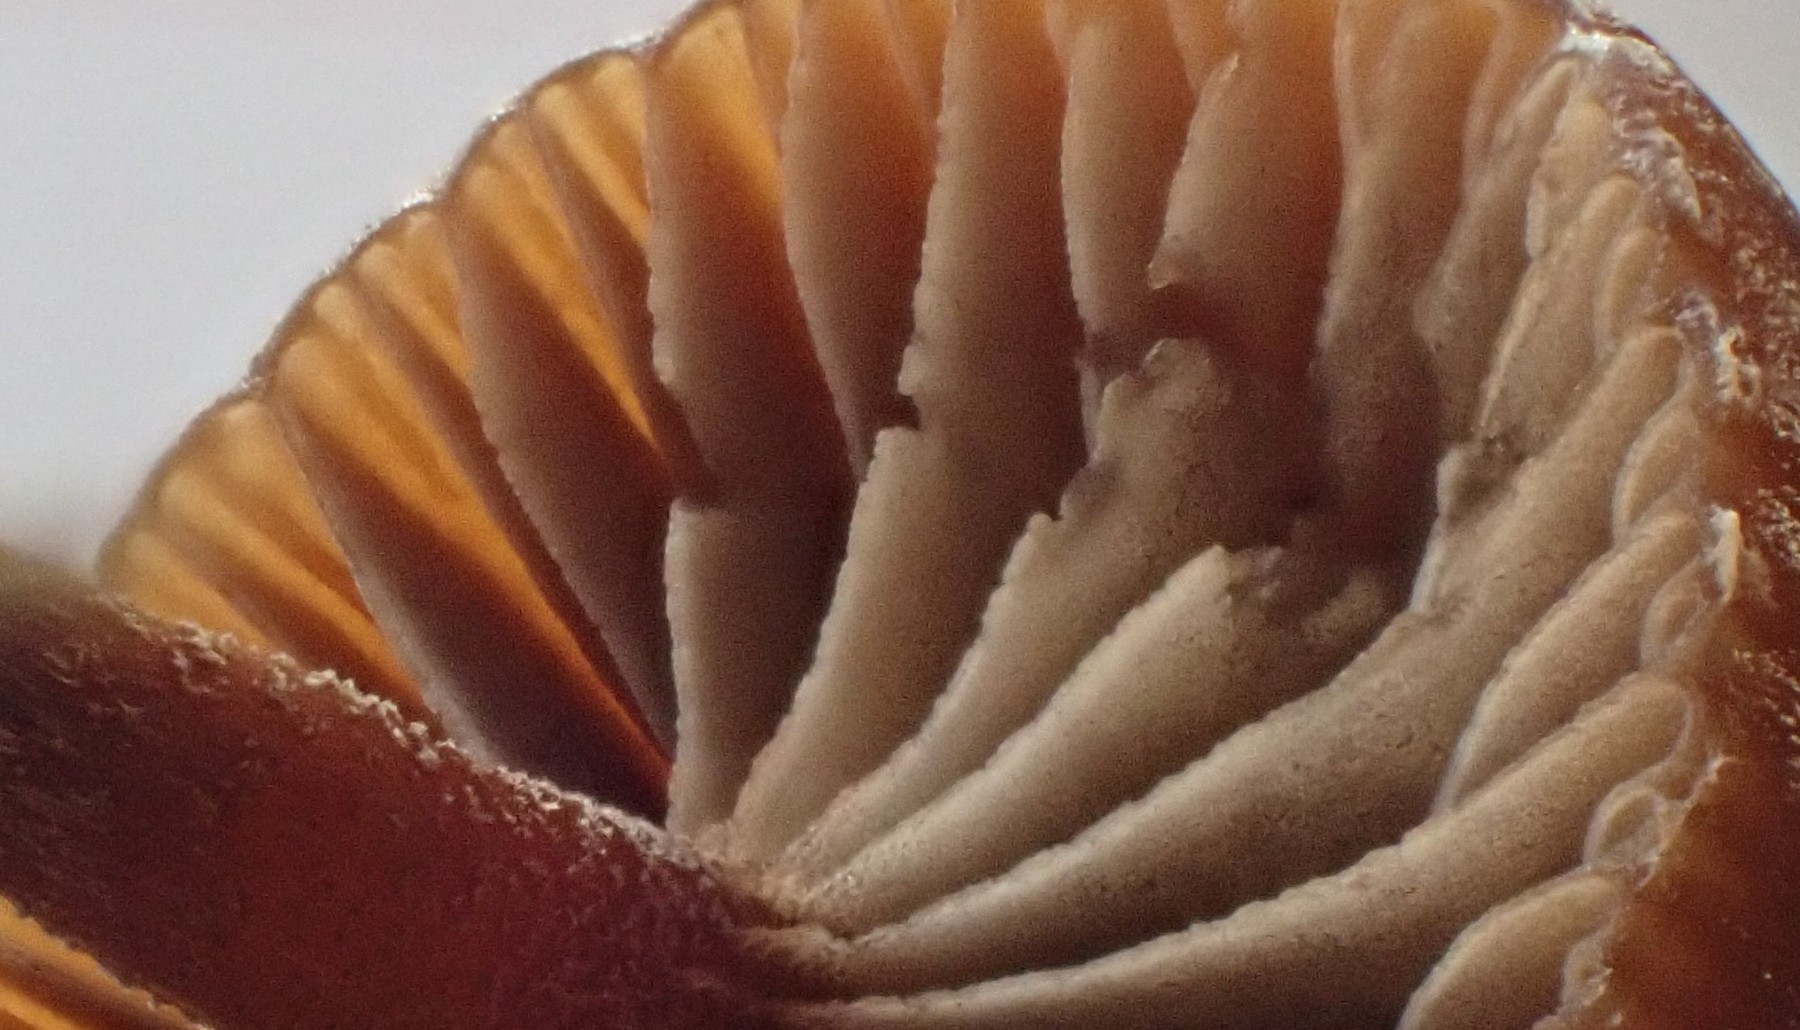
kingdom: Fungi
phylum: Basidiomycota
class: Agaricomycetes
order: Agaricales
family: Strophariaceae
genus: Deconica
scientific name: Deconica
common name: stråhat
